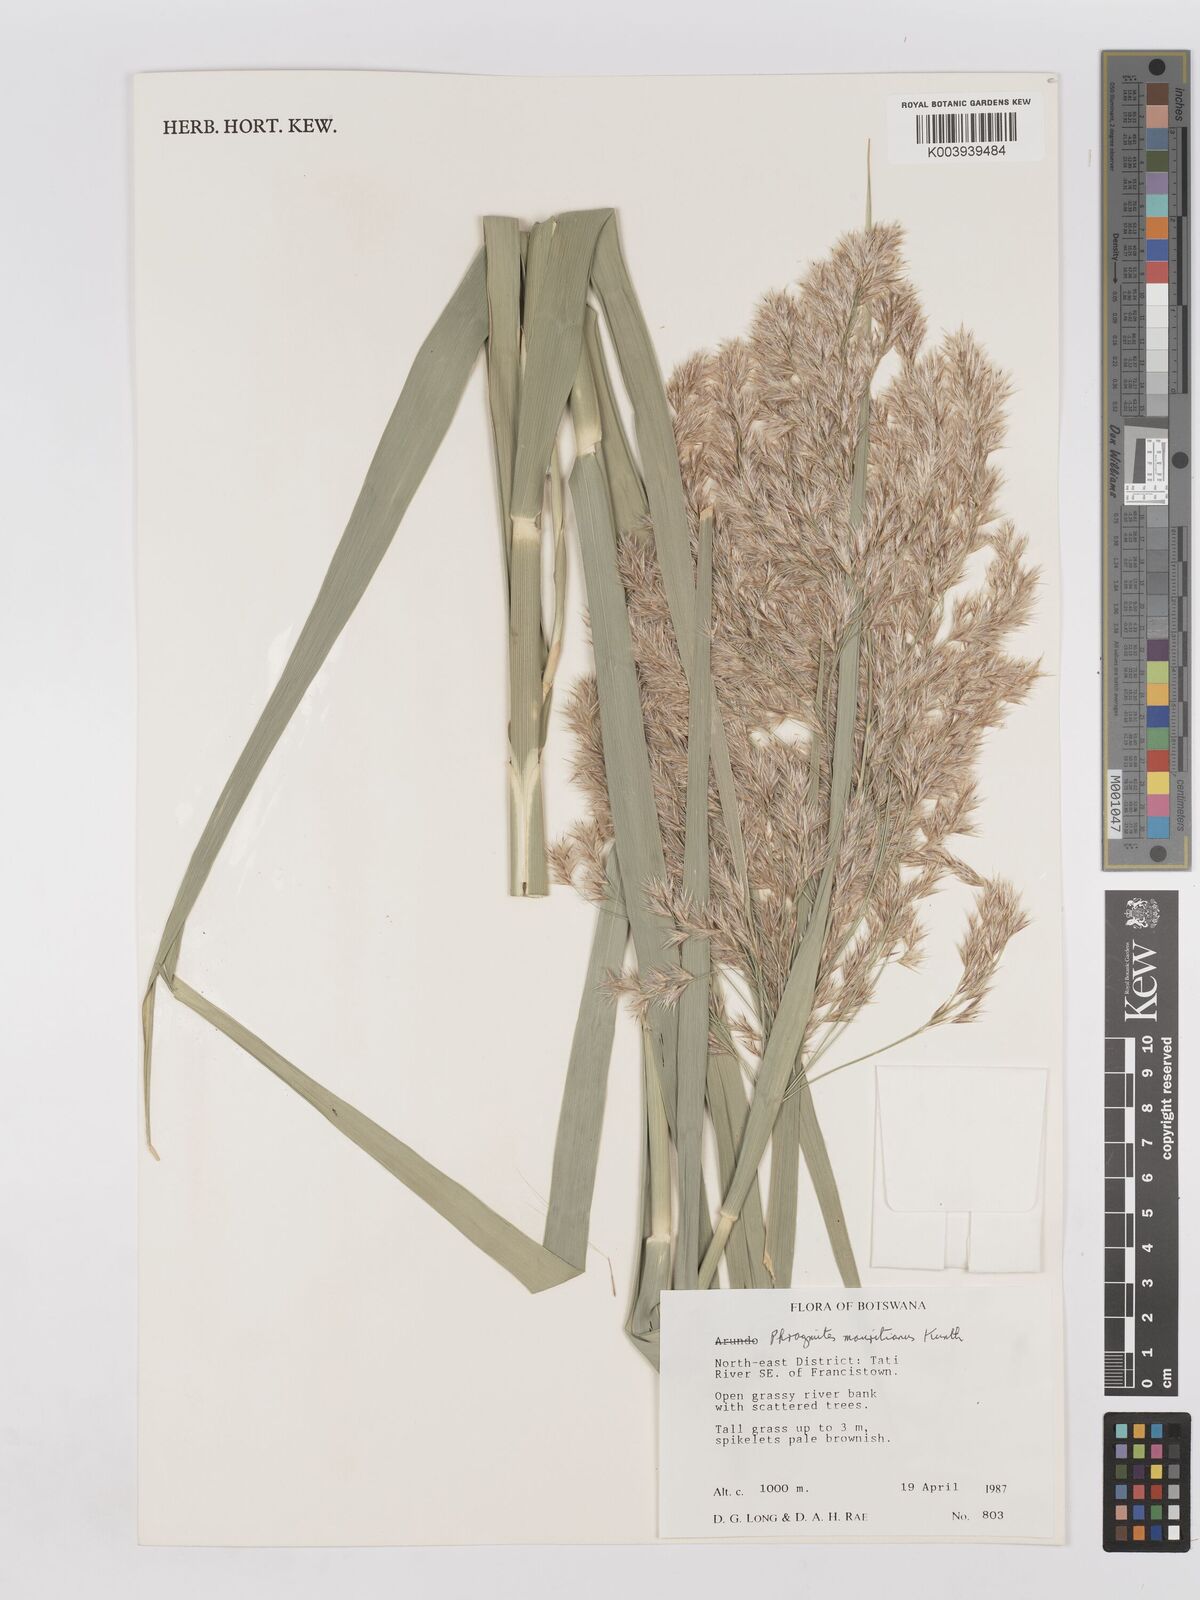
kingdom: Plantae
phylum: Tracheophyta
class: Liliopsida
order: Poales
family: Poaceae
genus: Phragmites
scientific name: Phragmites mauritianus
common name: Reed grass
